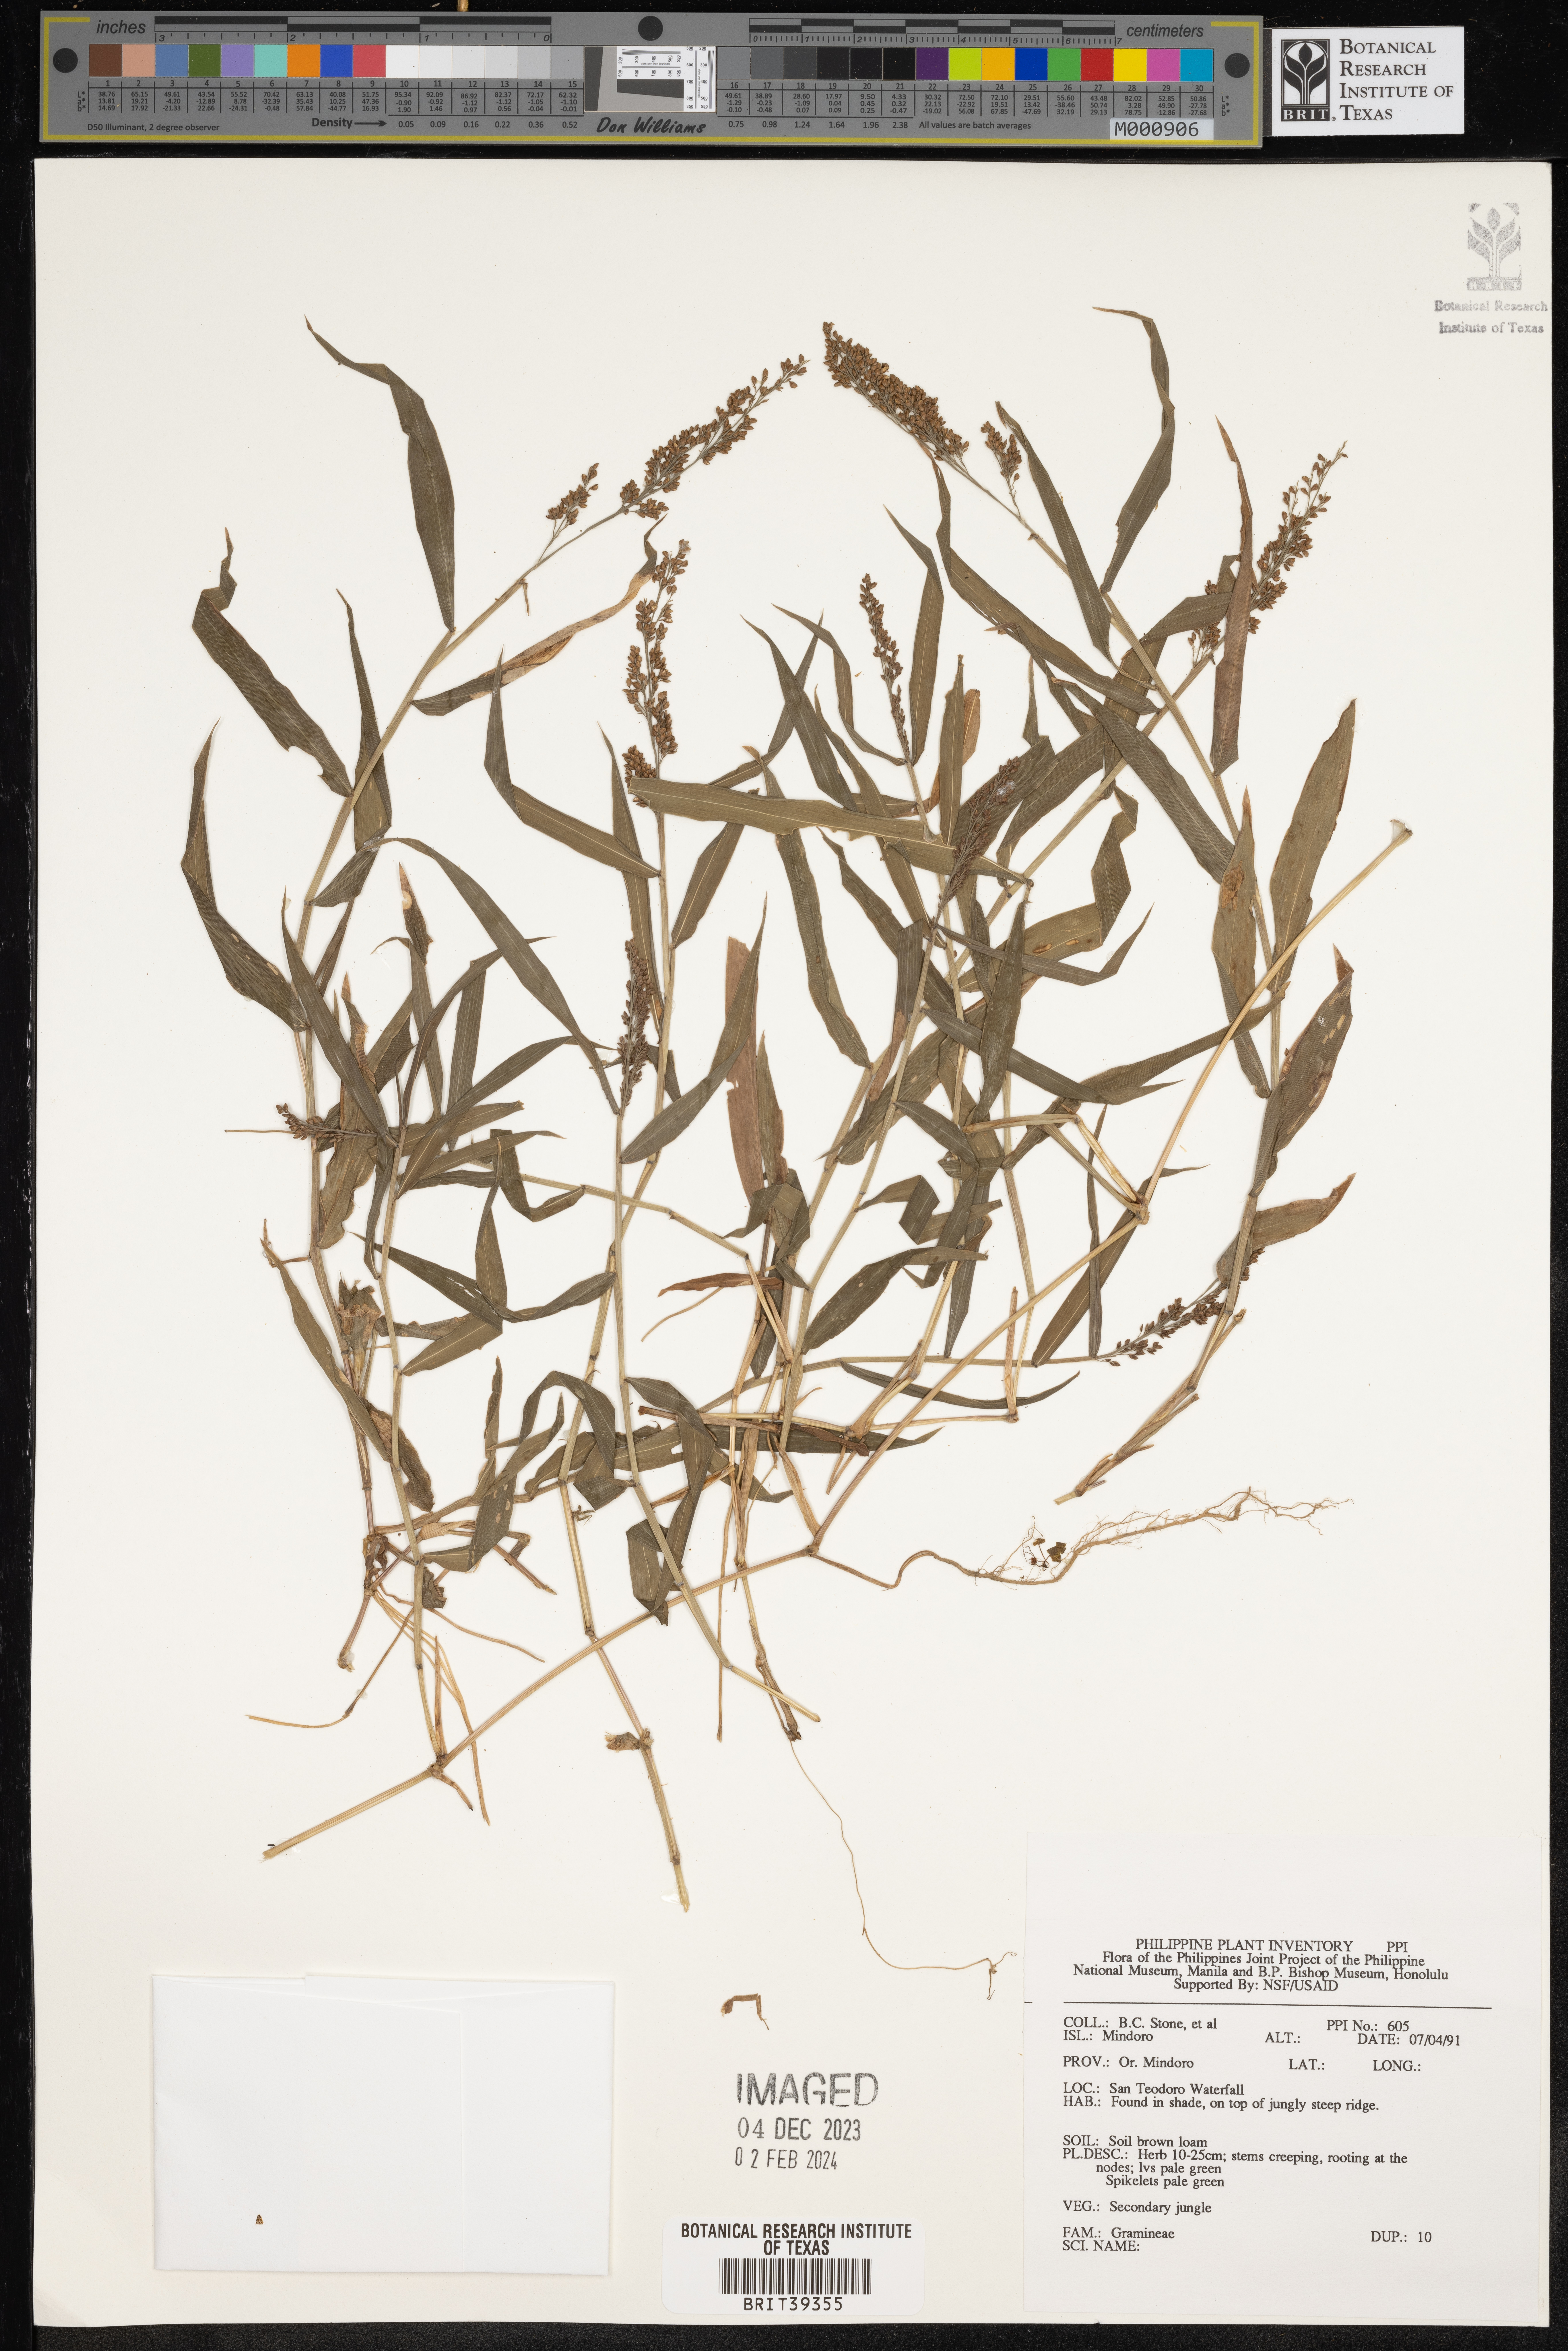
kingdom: Plantae
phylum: Tracheophyta
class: Liliopsida
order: Poales
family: Poaceae
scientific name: Poaceae
